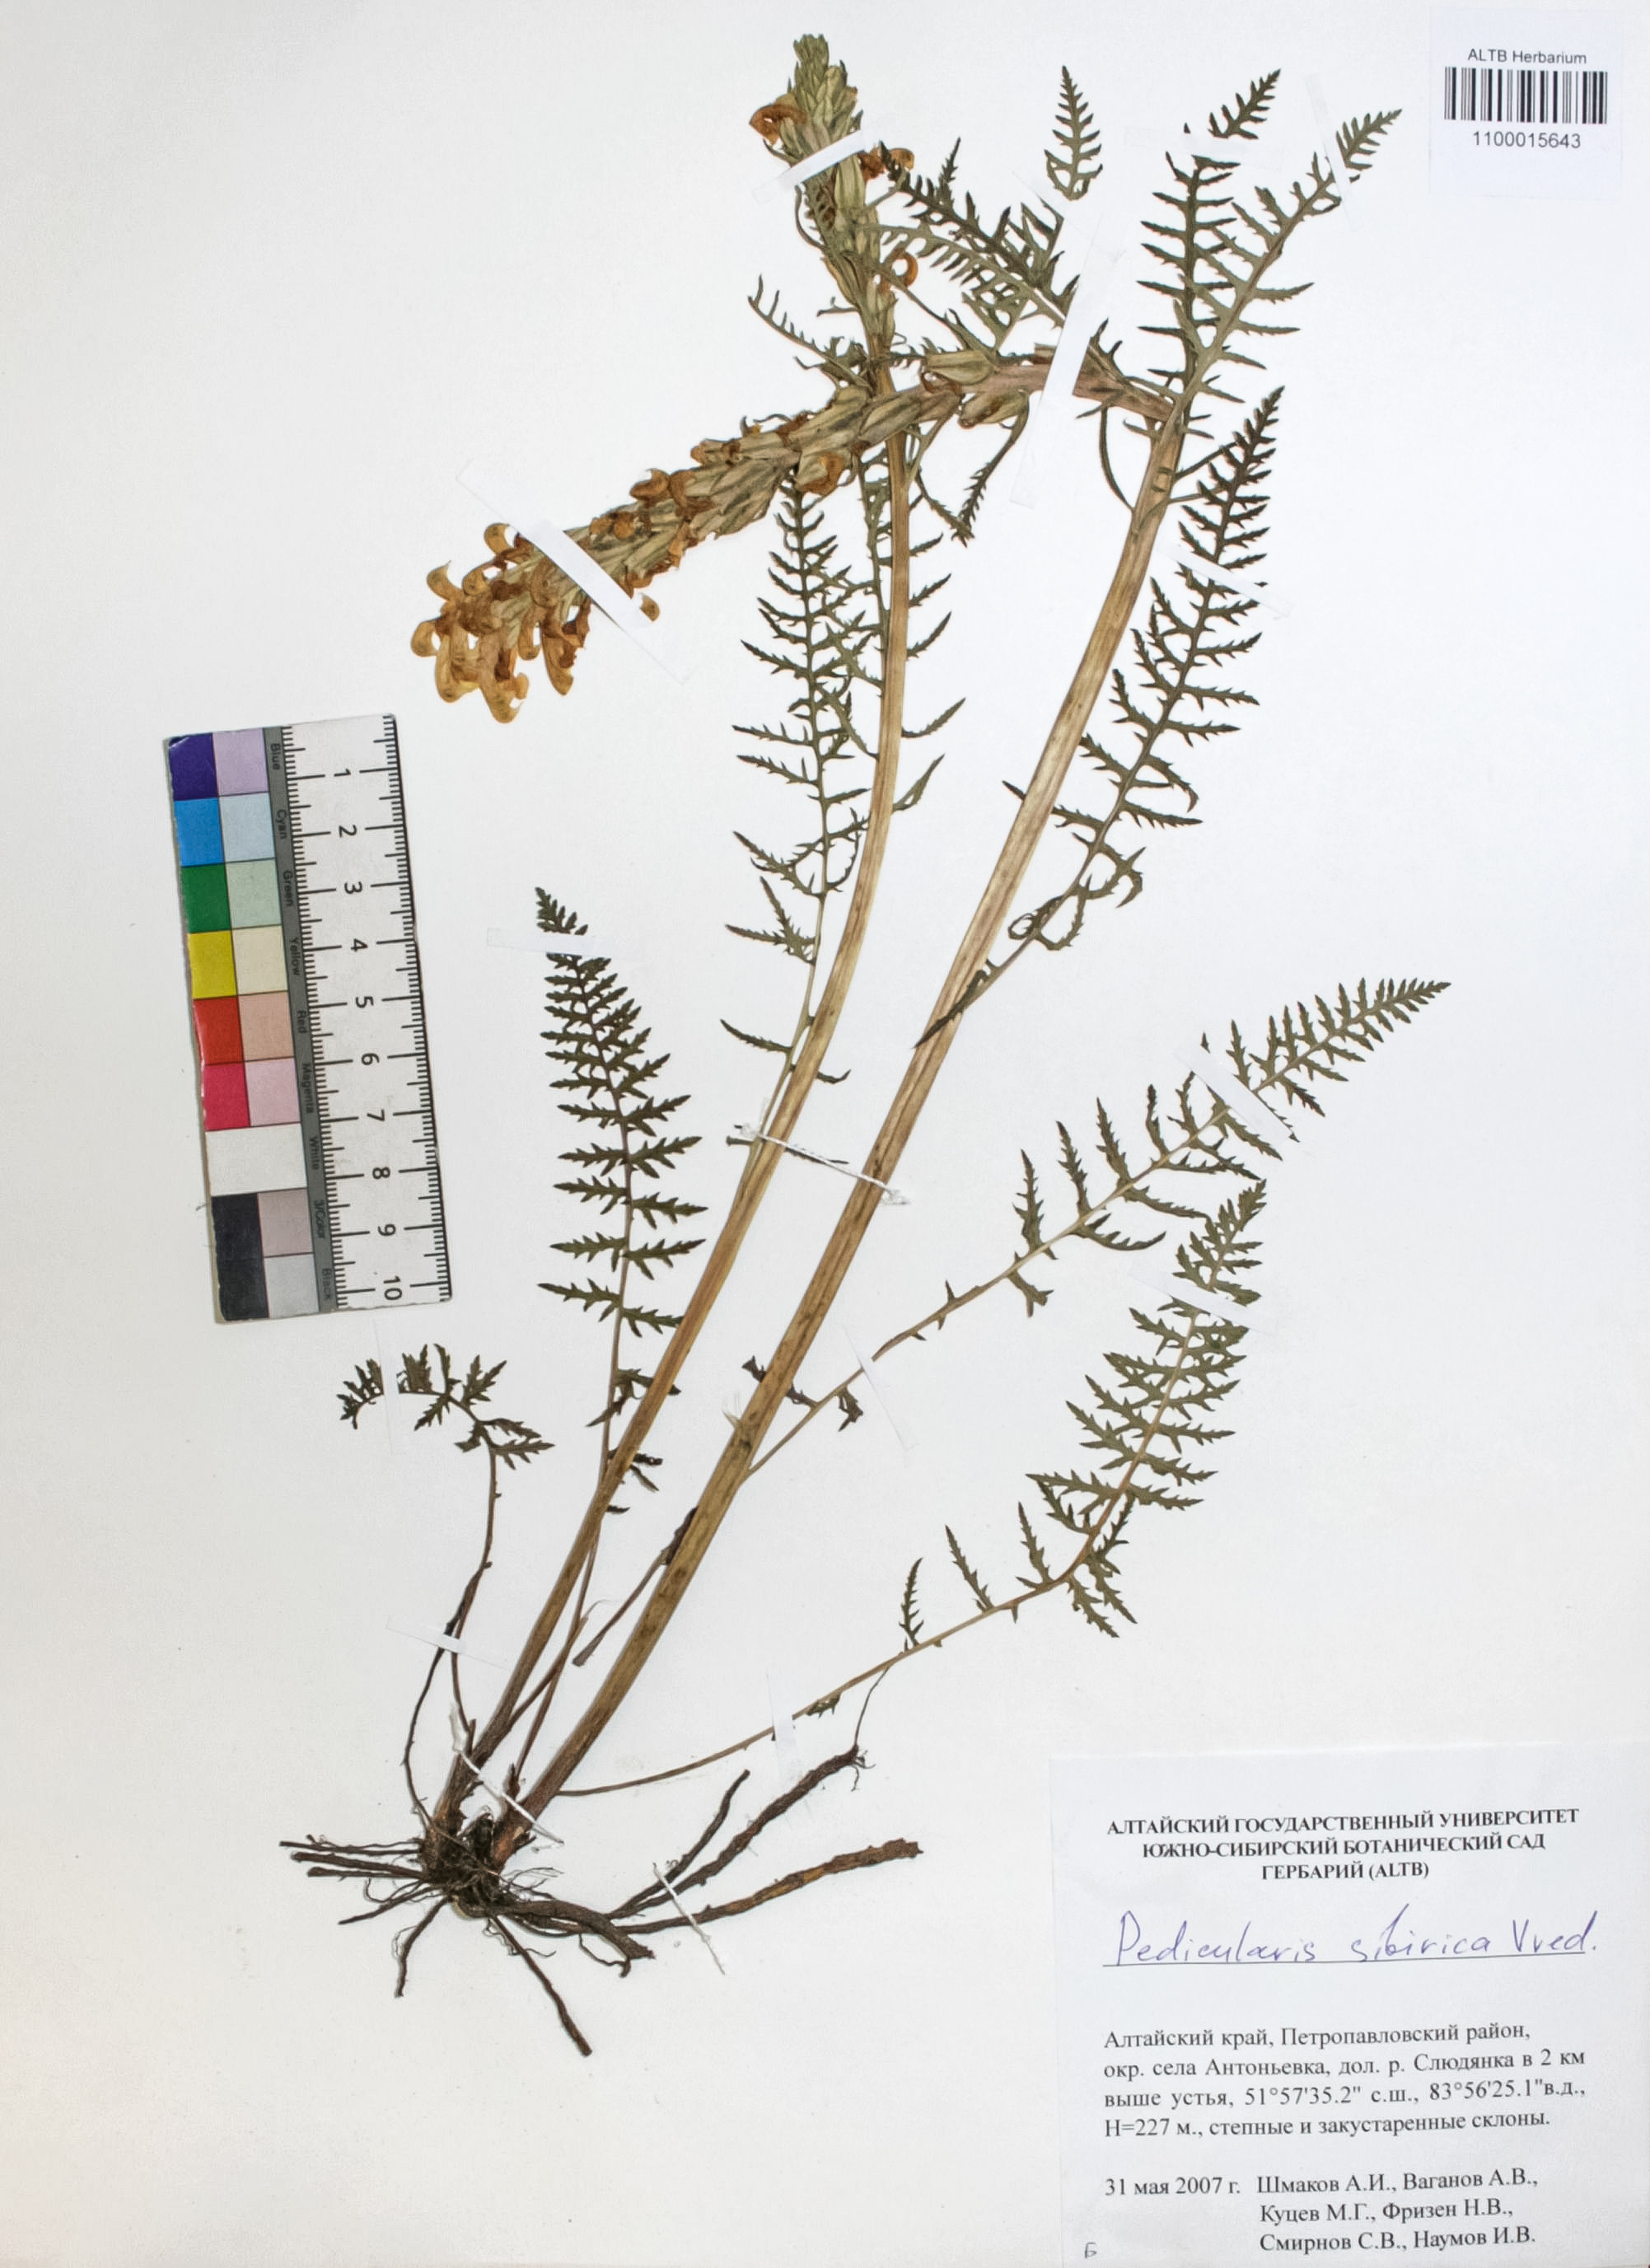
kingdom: Plantae
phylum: Tracheophyta
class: Magnoliopsida
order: Lamiales
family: Orobanchaceae
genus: Pedicularis
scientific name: Pedicularis sibirica
